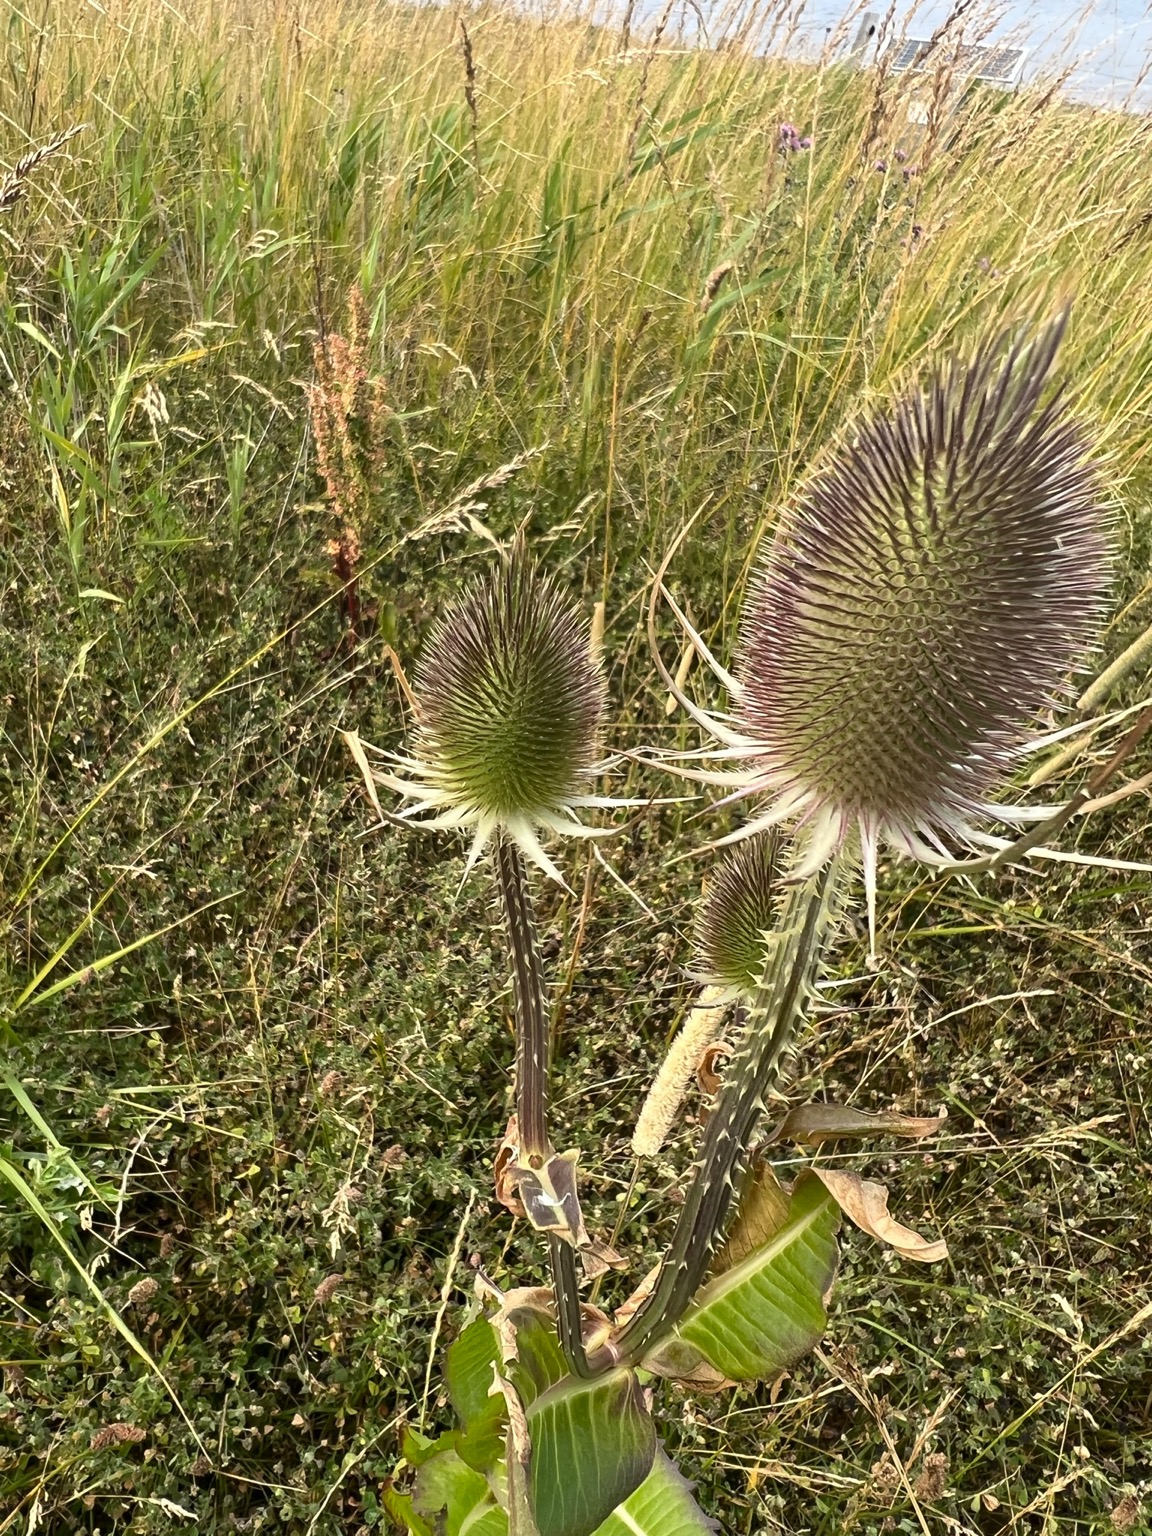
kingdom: Plantae
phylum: Tracheophyta
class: Magnoliopsida
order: Dipsacales
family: Caprifoliaceae
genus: Dipsacus
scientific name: Dipsacus fullonum
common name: Gærde-kartebolle
